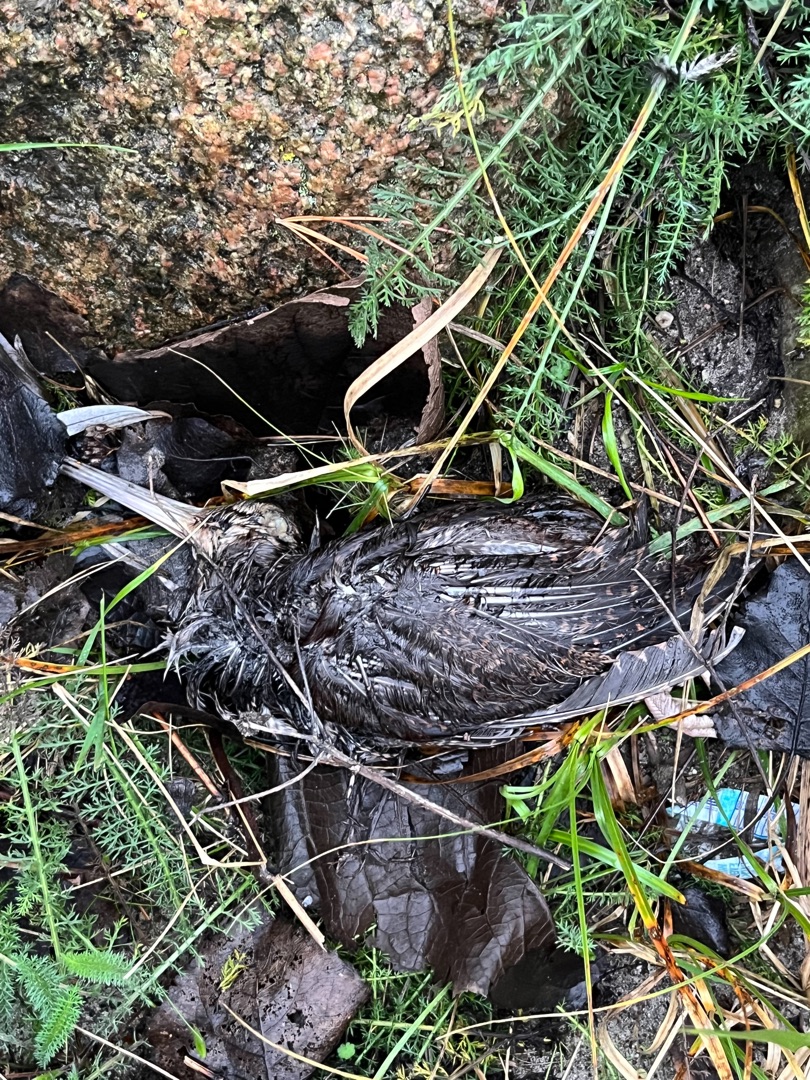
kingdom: Animalia
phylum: Chordata
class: Aves
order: Charadriiformes
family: Scolopacidae
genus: Scolopax
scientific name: Scolopax rusticola
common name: Skovsneppe
